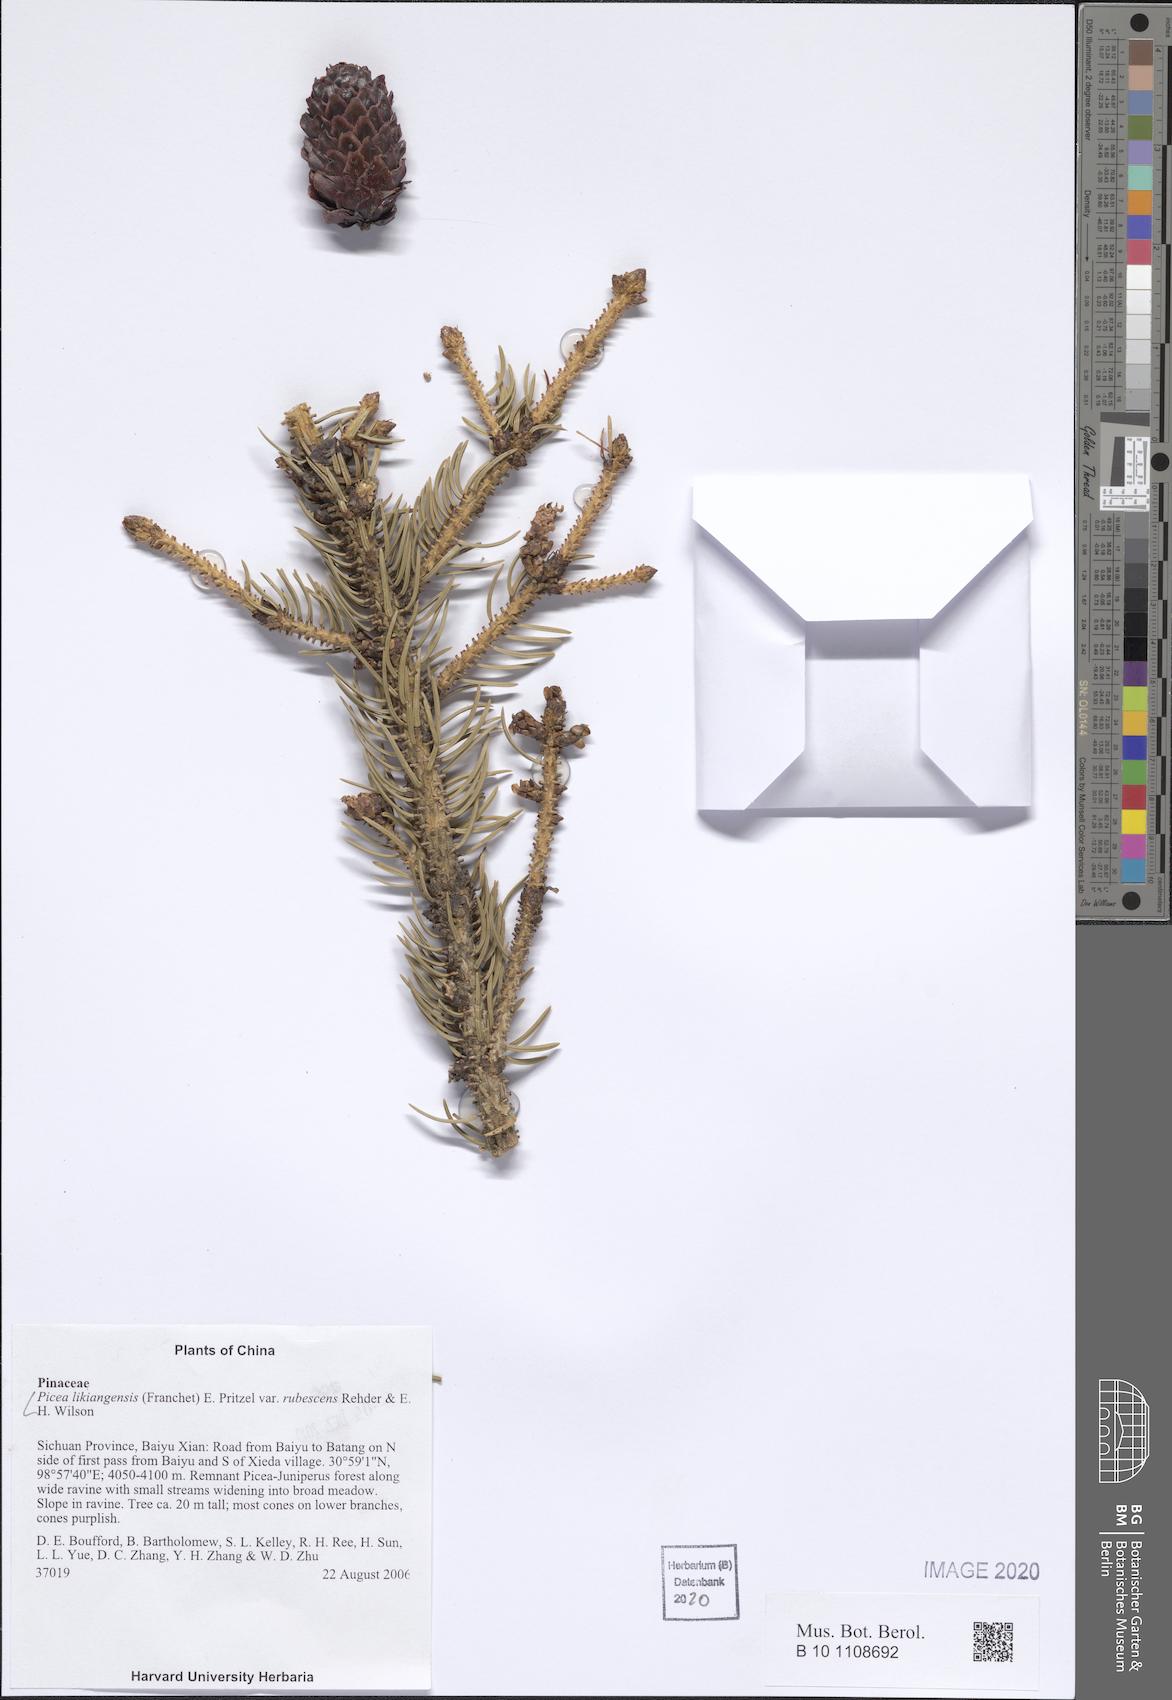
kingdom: Plantae
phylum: Tracheophyta
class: Pinopsida
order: Pinales
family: Pinaceae
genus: Picea
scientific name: Picea likiangensis
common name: Likiang spruce
